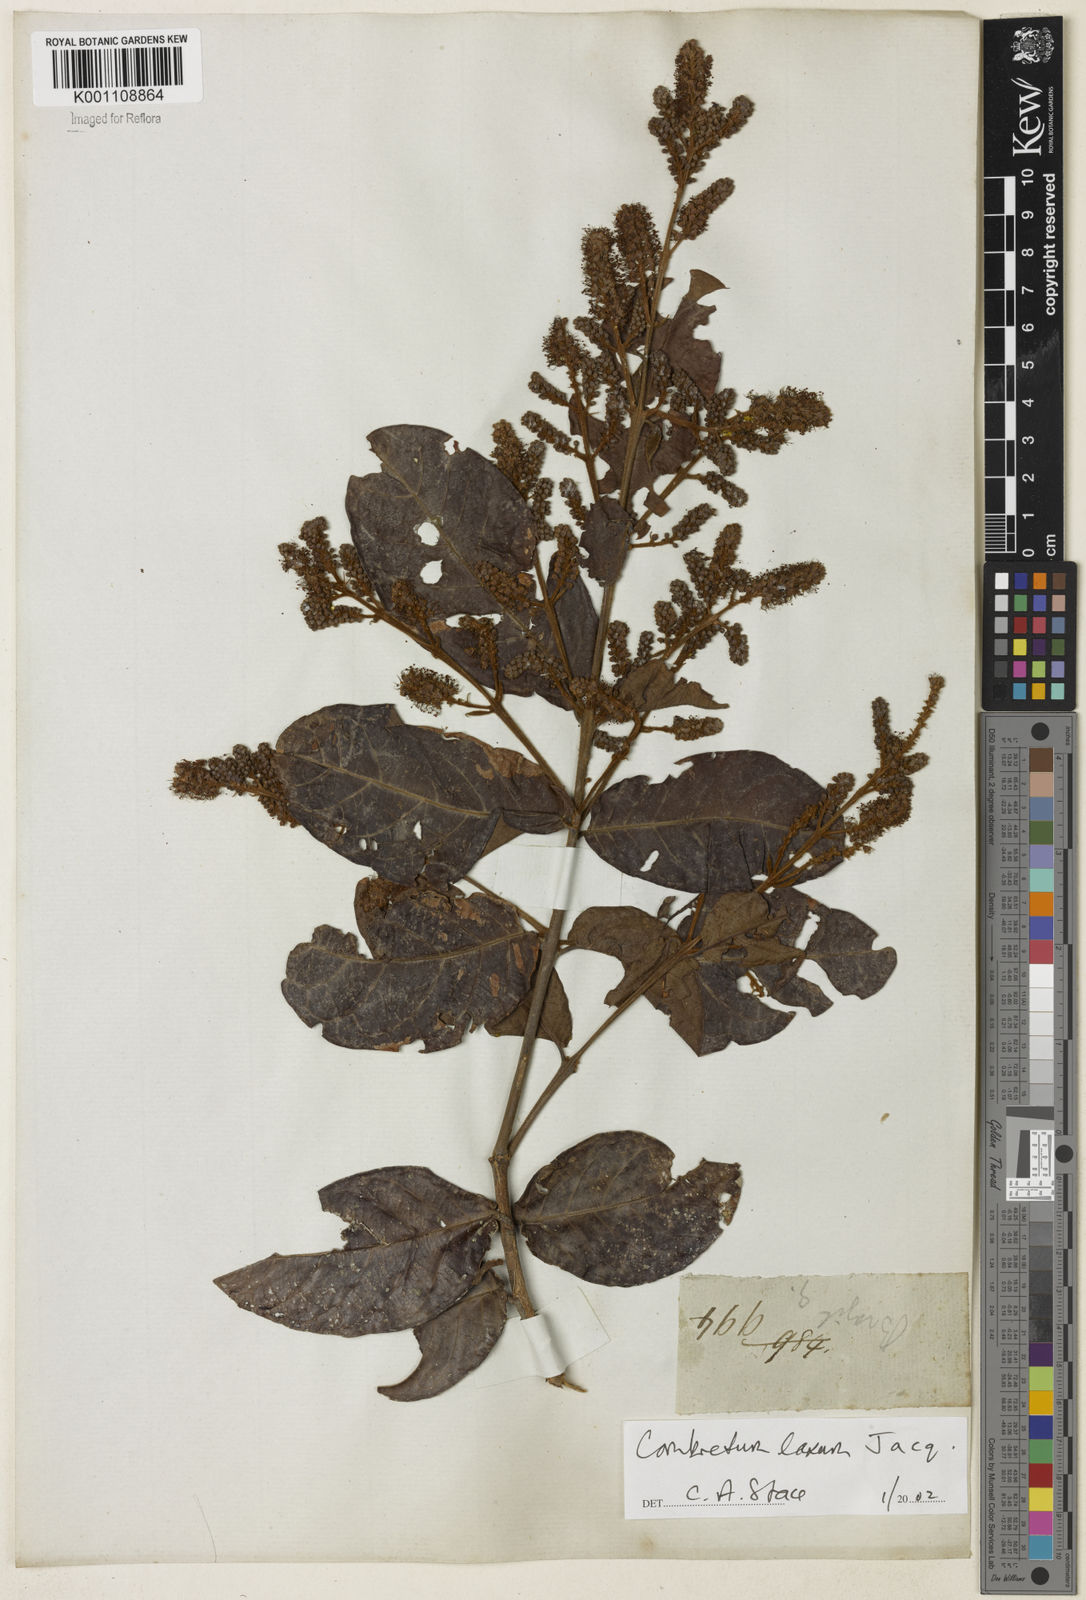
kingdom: Plantae
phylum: Tracheophyta
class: Magnoliopsida
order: Myrtales
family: Combretaceae
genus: Combretum
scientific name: Combretum laxum
